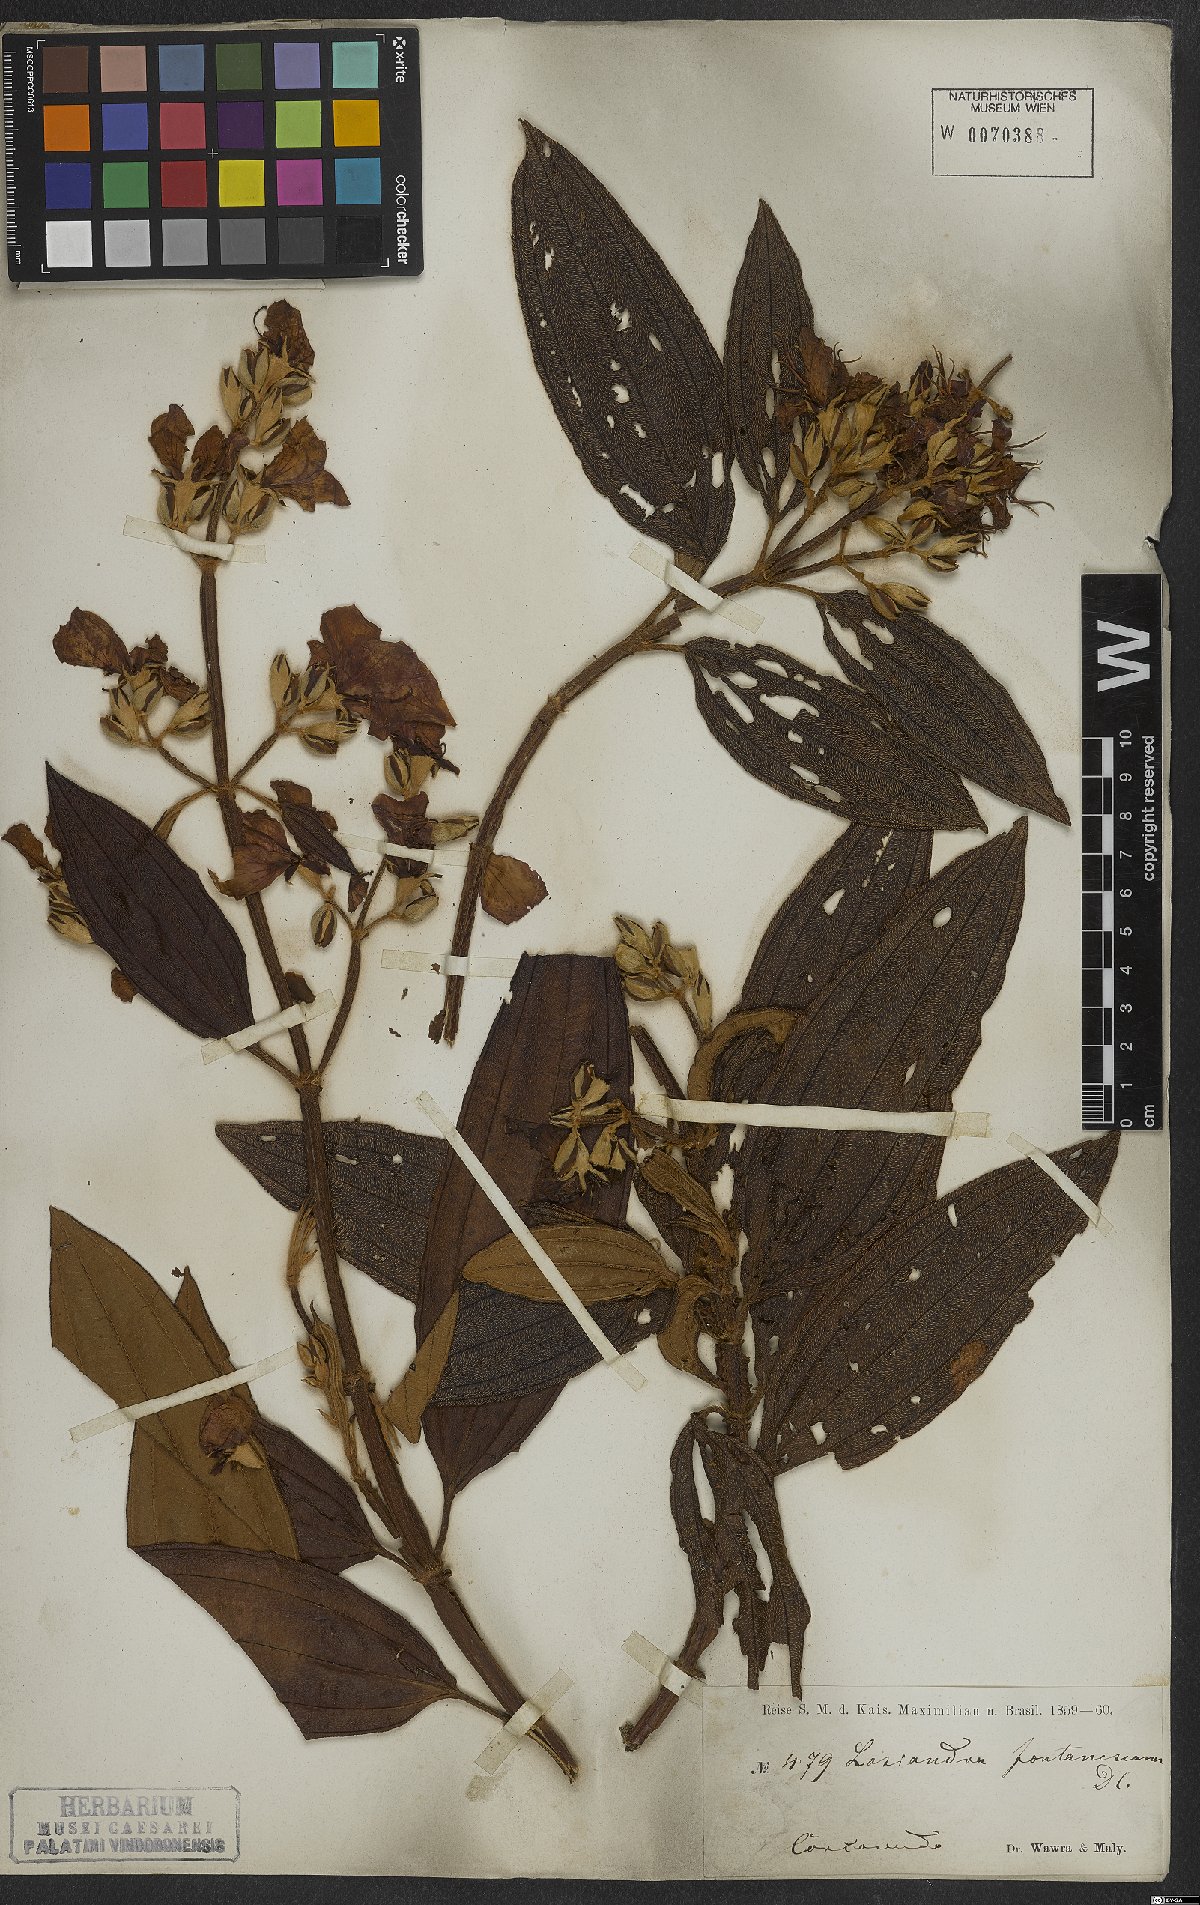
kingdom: Plantae
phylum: Tracheophyta
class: Magnoliopsida
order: Myrtales
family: Melastomataceae
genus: Pleroma
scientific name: Pleroma granulosum
